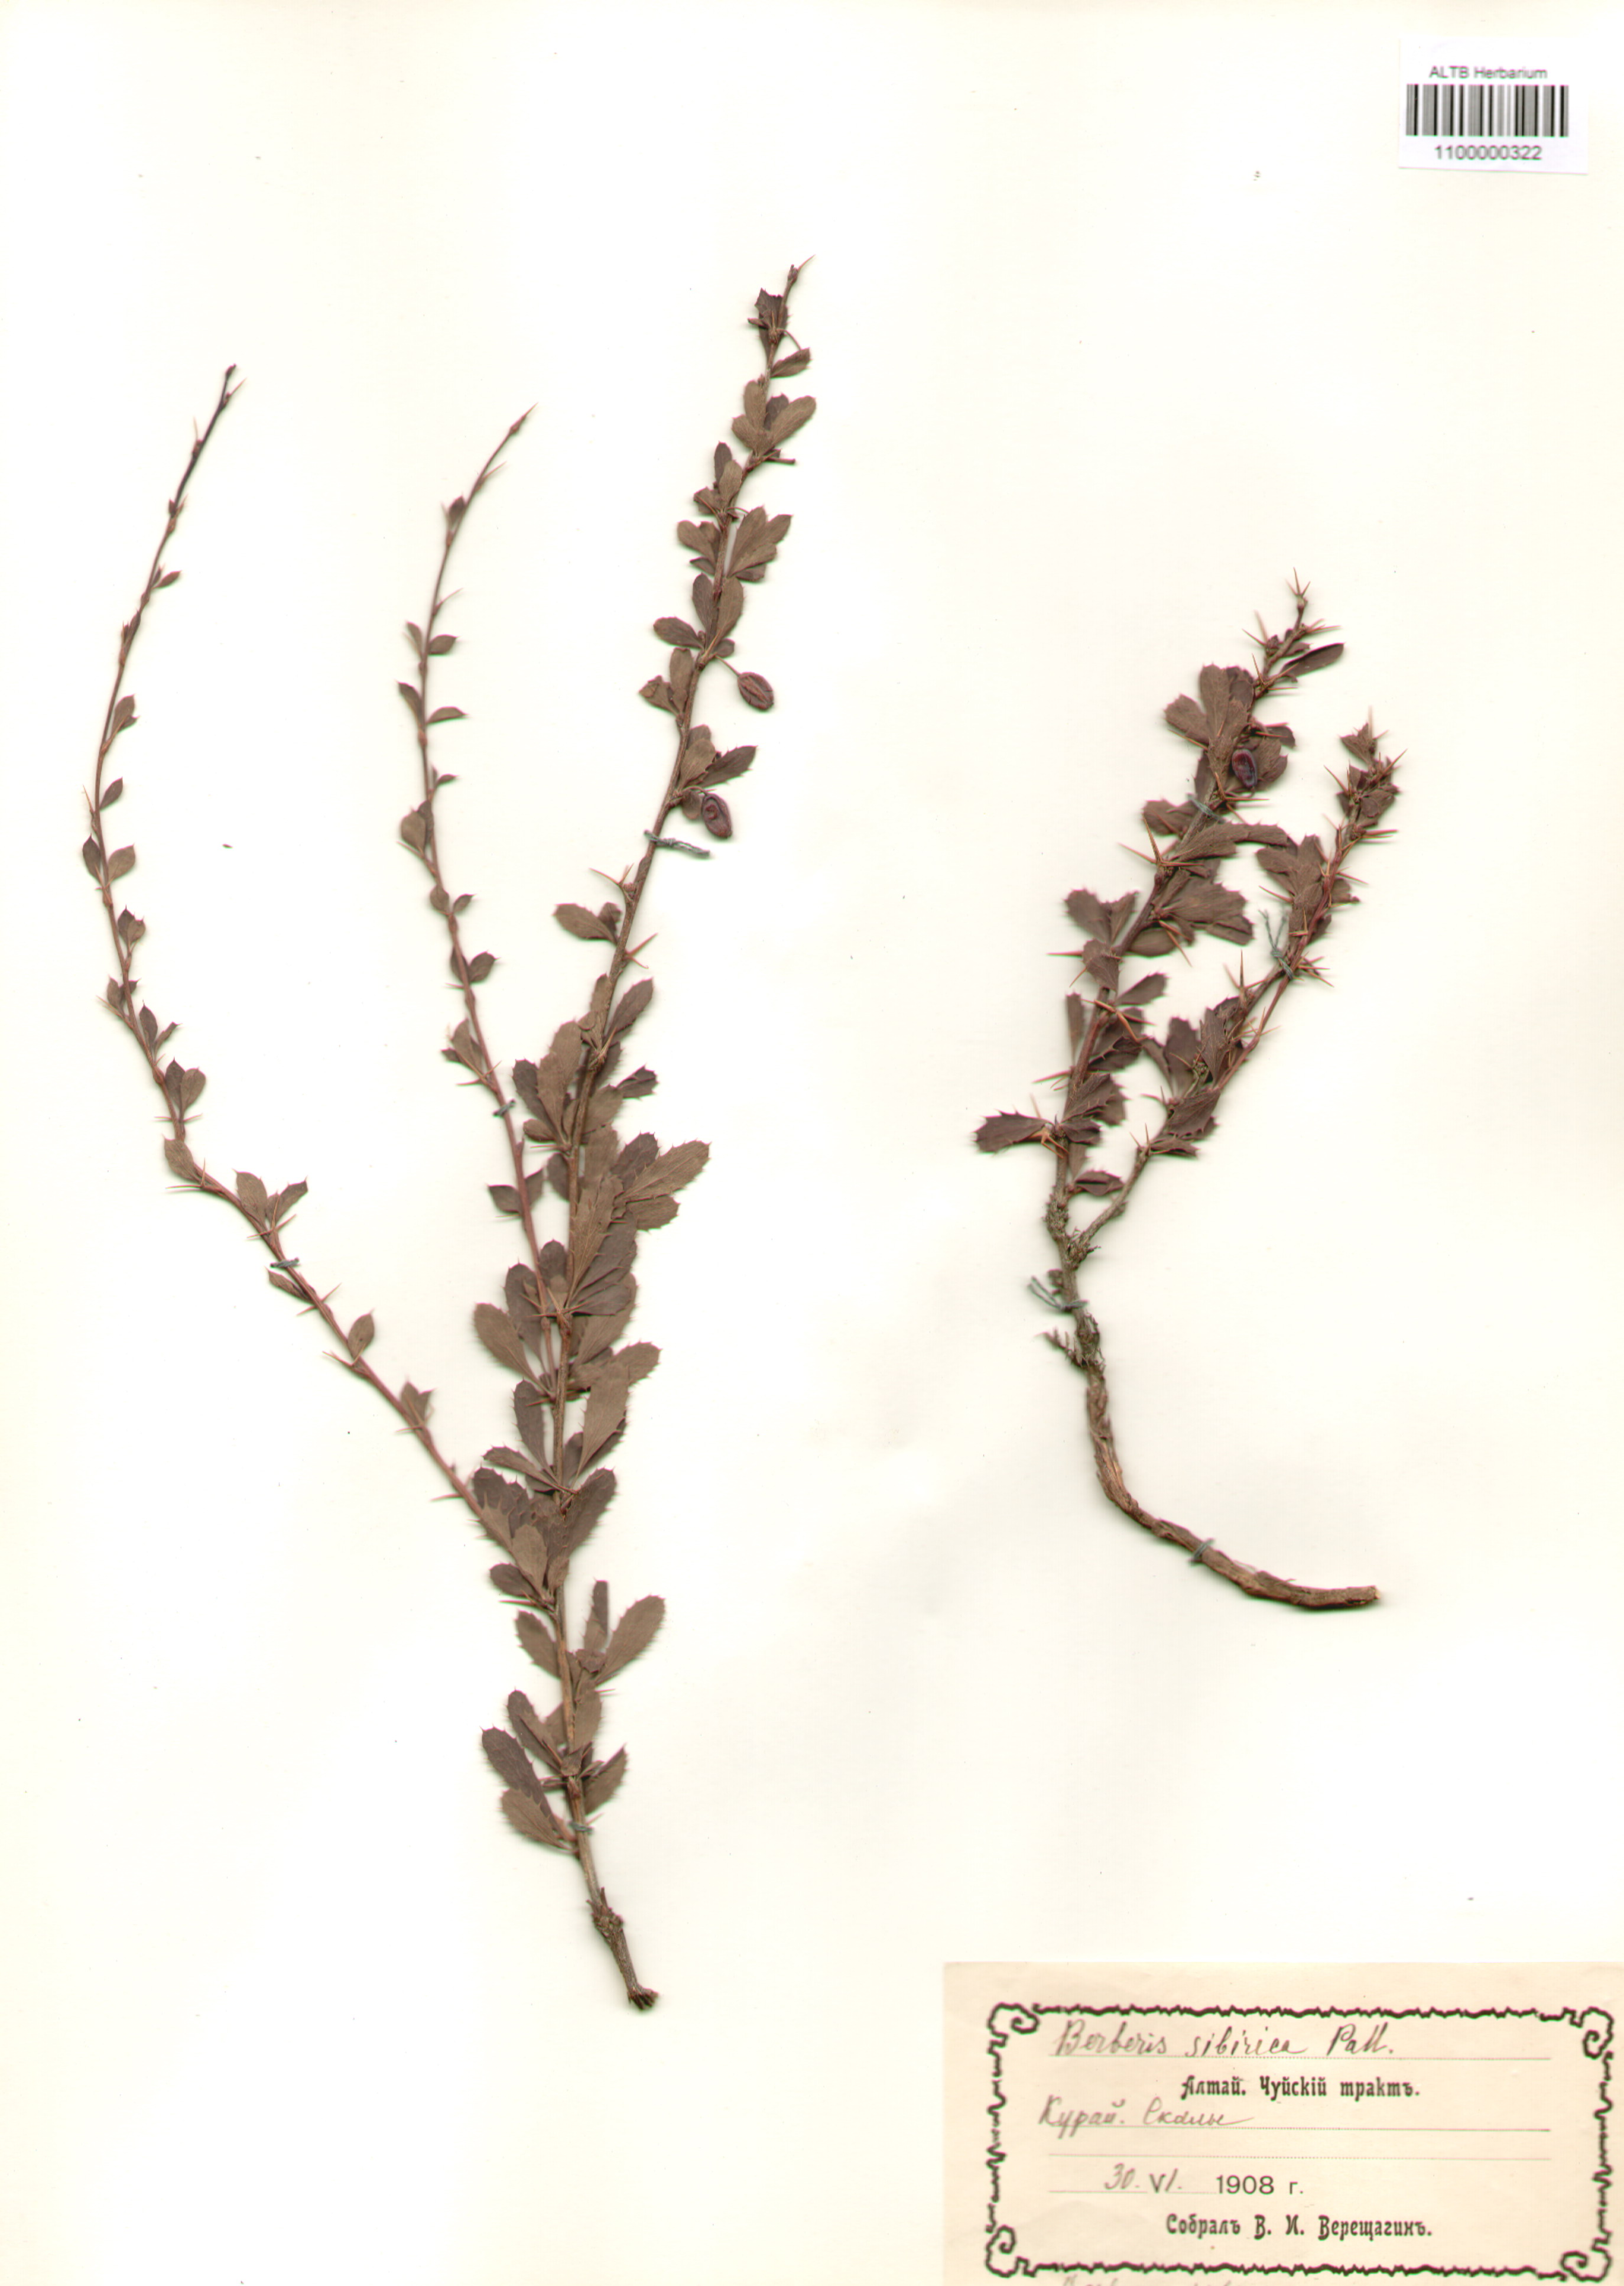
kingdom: Plantae
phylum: Tracheophyta
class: Magnoliopsida
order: Ranunculales
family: Berberidaceae
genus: Berberis
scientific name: Berberis sibirica
